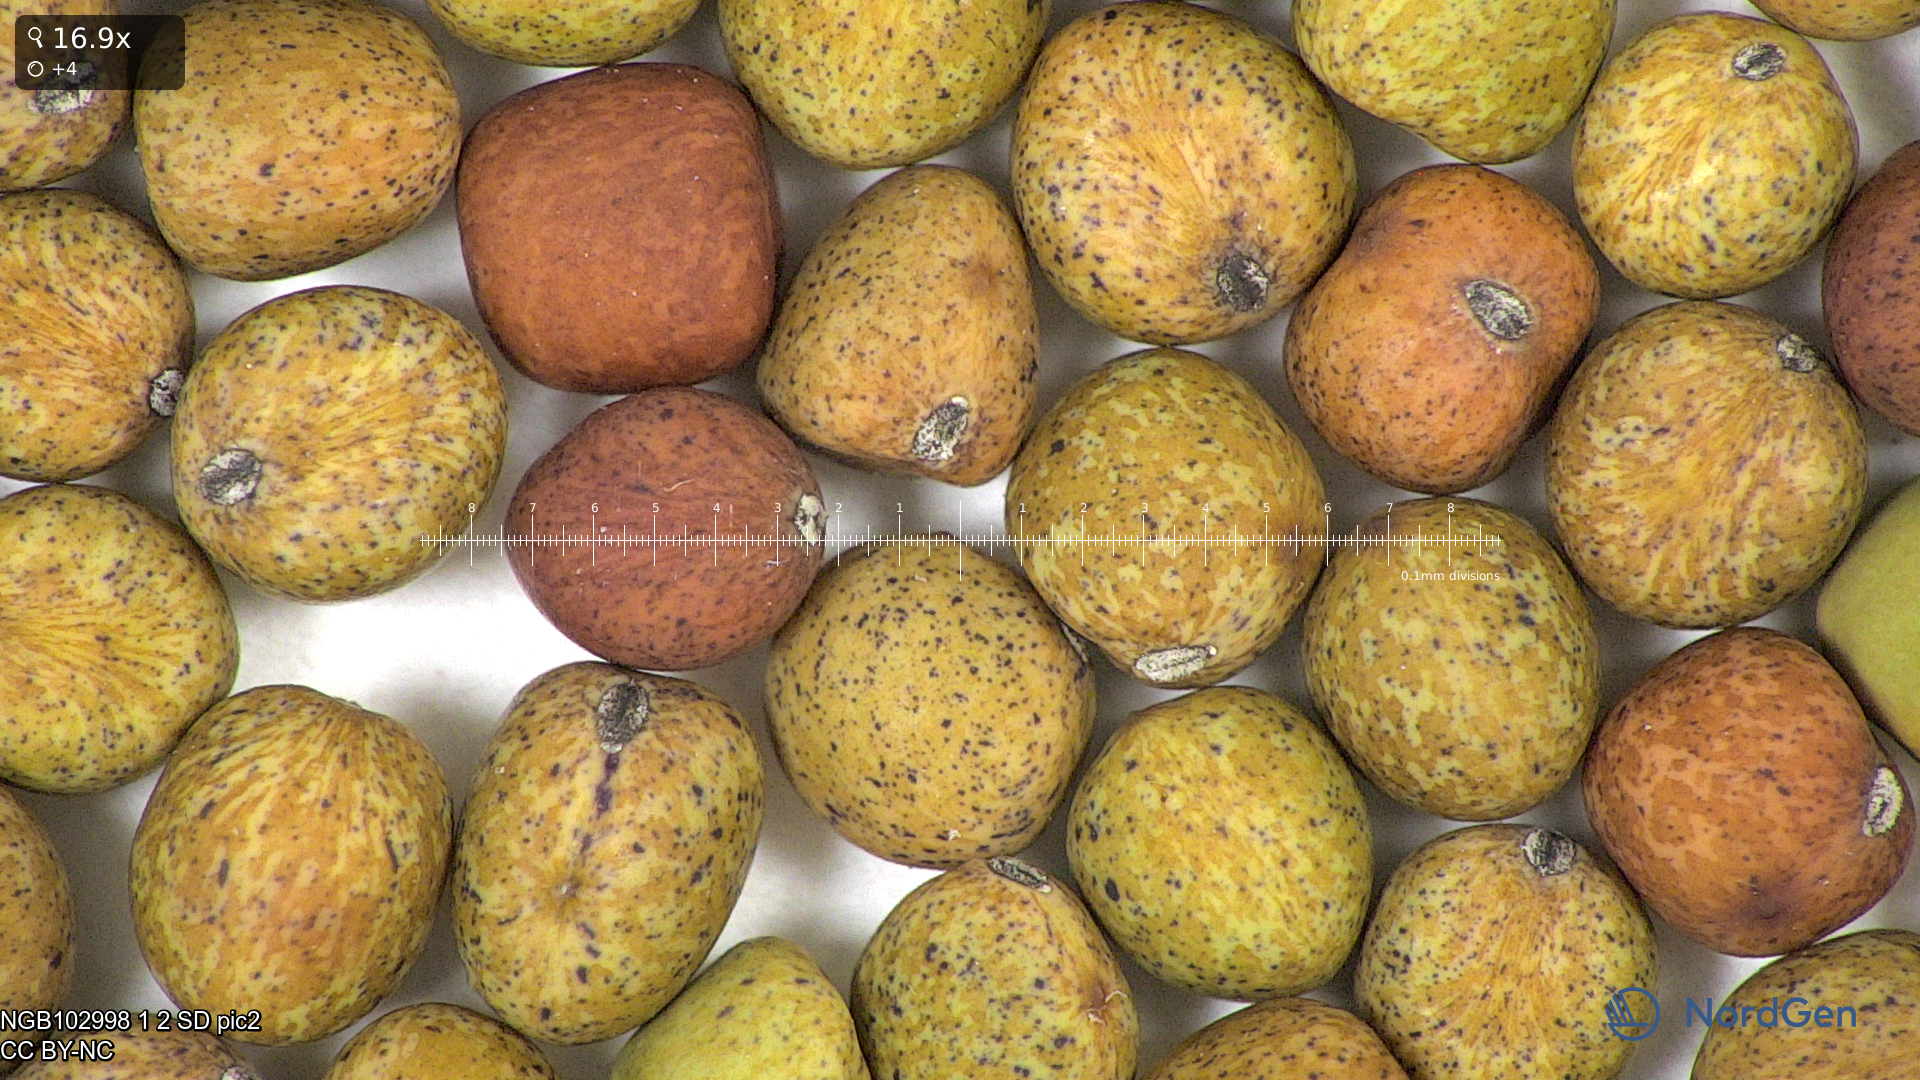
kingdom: Plantae
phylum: Tracheophyta
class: Magnoliopsida
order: Fabales
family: Fabaceae
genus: Lathyrus
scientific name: Lathyrus oleraceus
